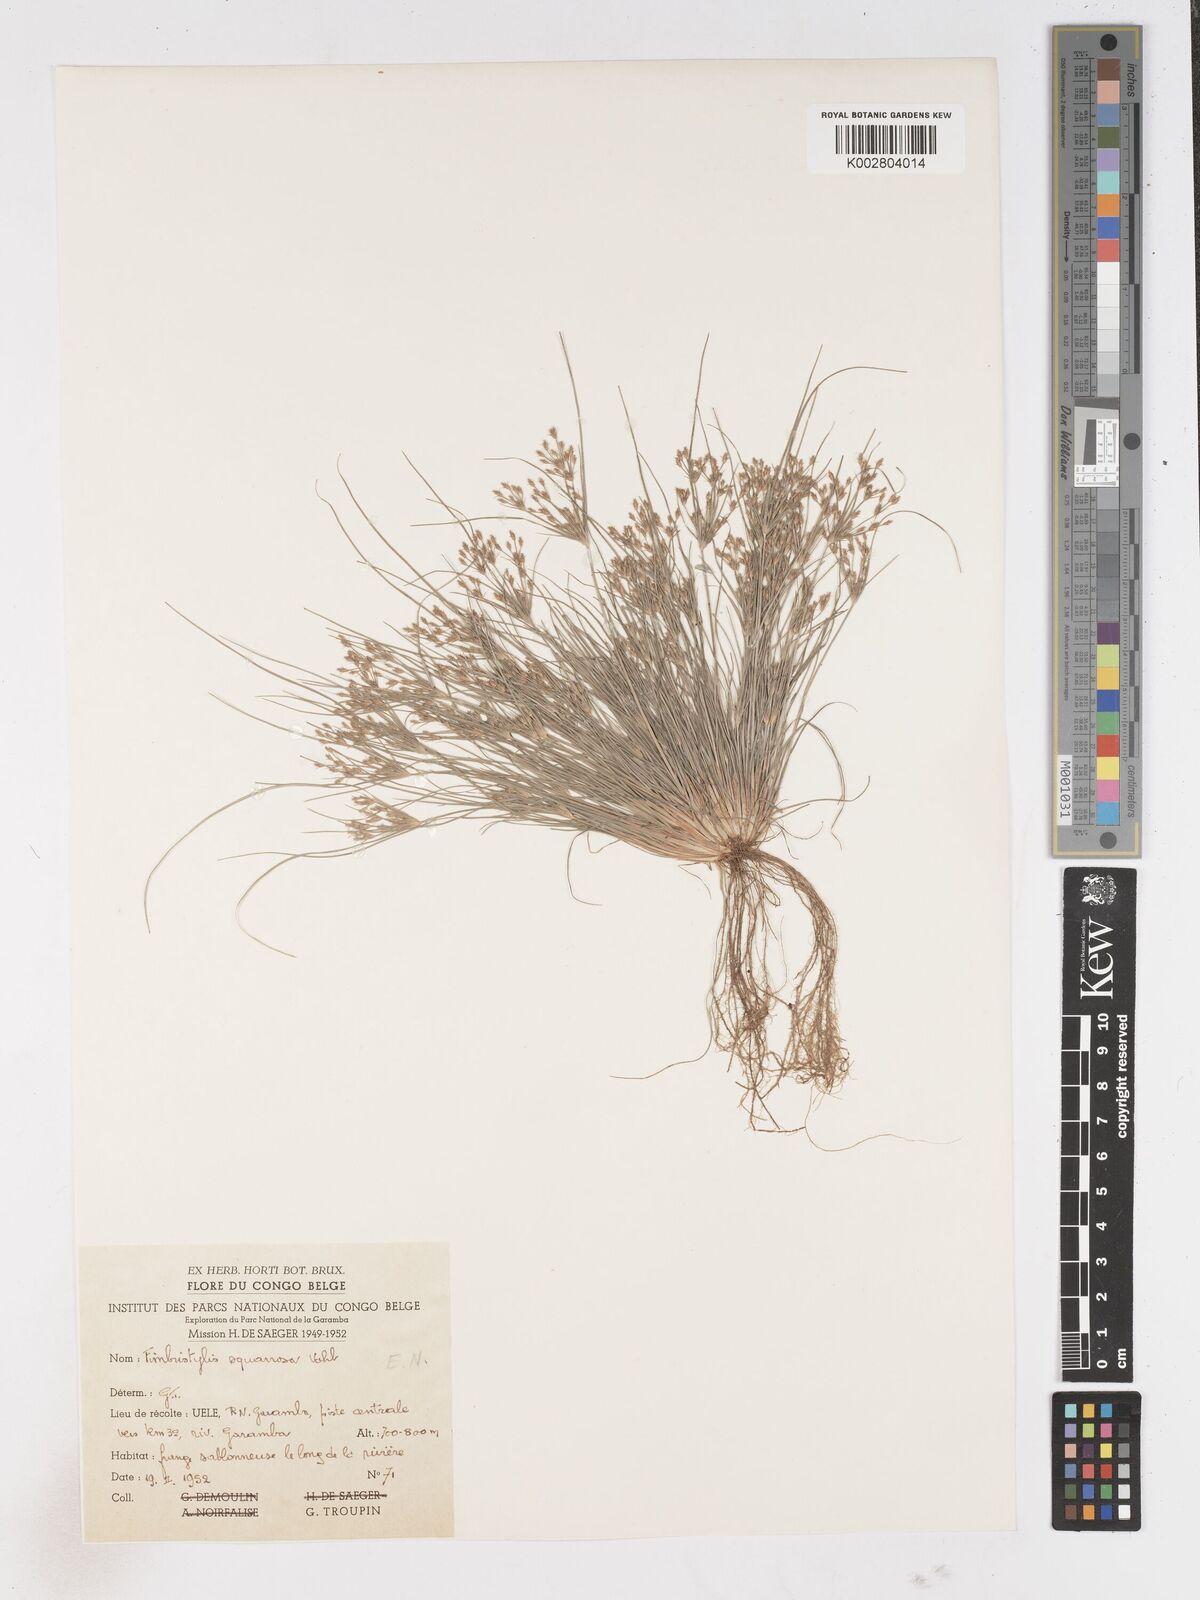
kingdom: Plantae
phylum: Tracheophyta
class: Liliopsida
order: Poales
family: Cyperaceae
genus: Fimbristylis
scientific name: Fimbristylis squarrosa
